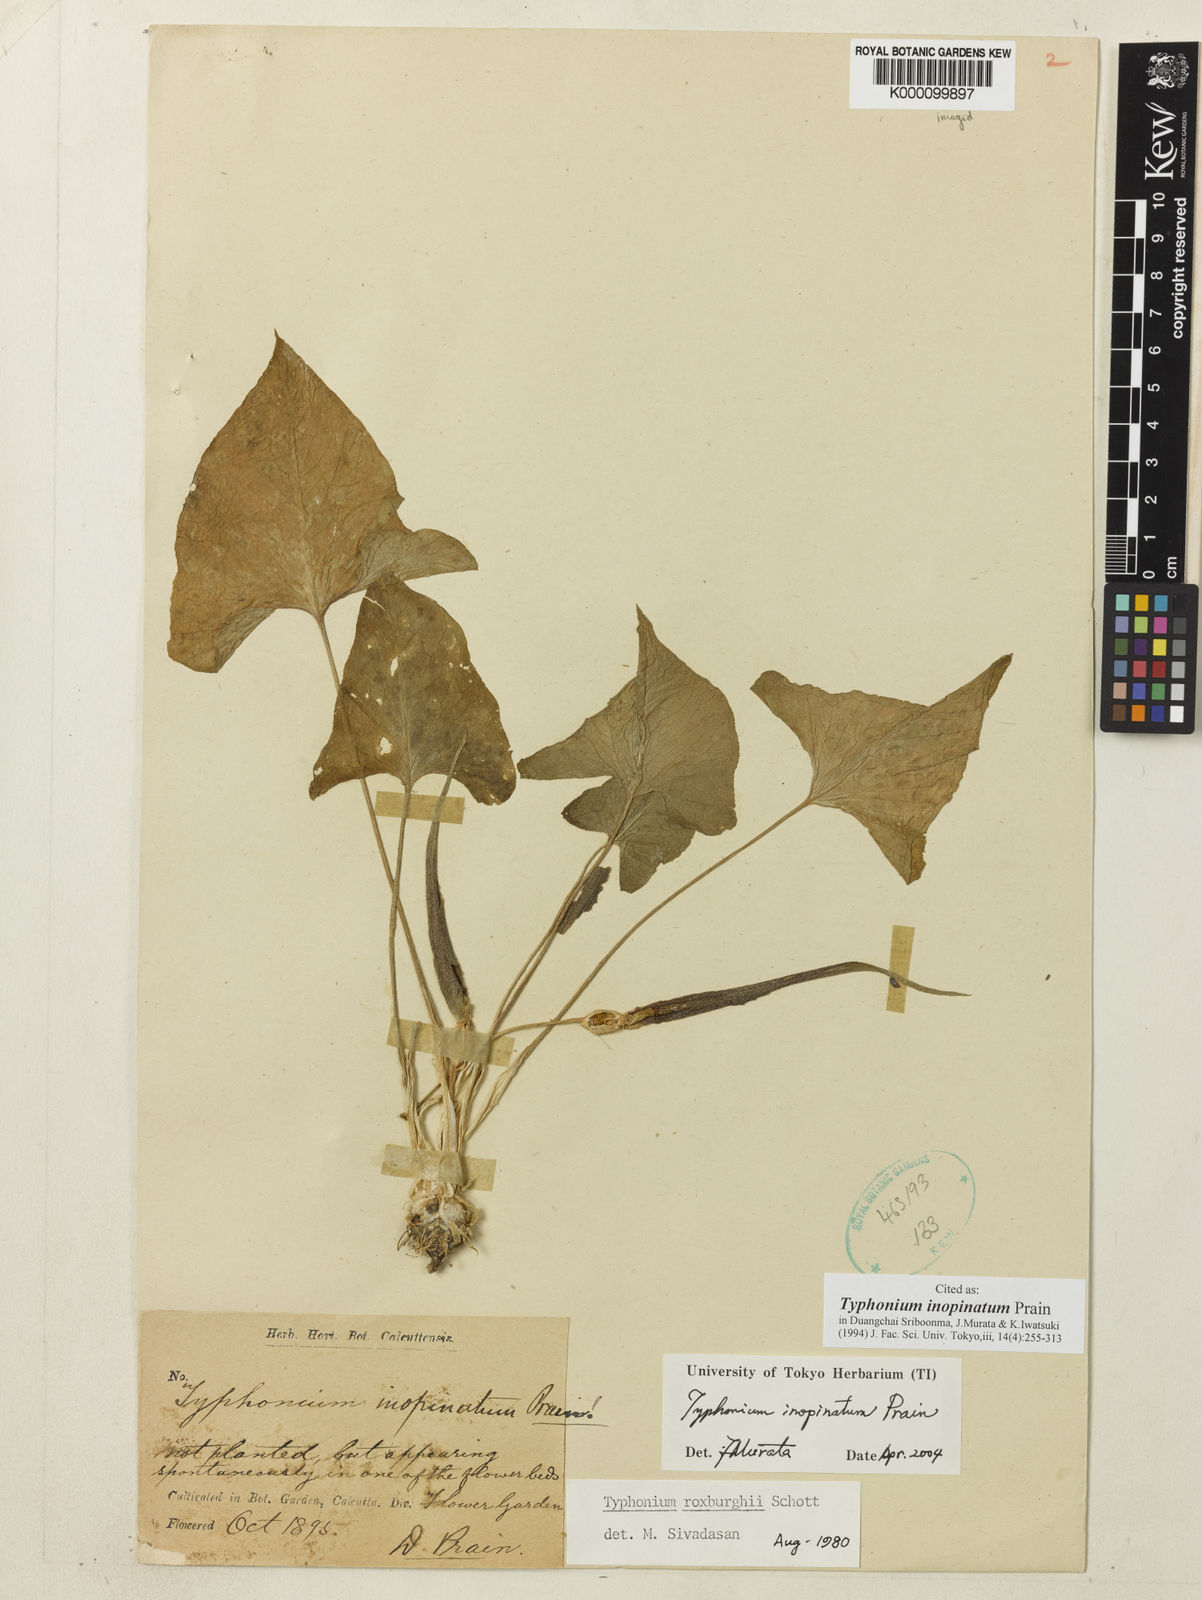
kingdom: Plantae
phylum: Tracheophyta
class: Liliopsida
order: Alismatales
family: Araceae
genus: Typhonium
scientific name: Typhonium inopinatum
